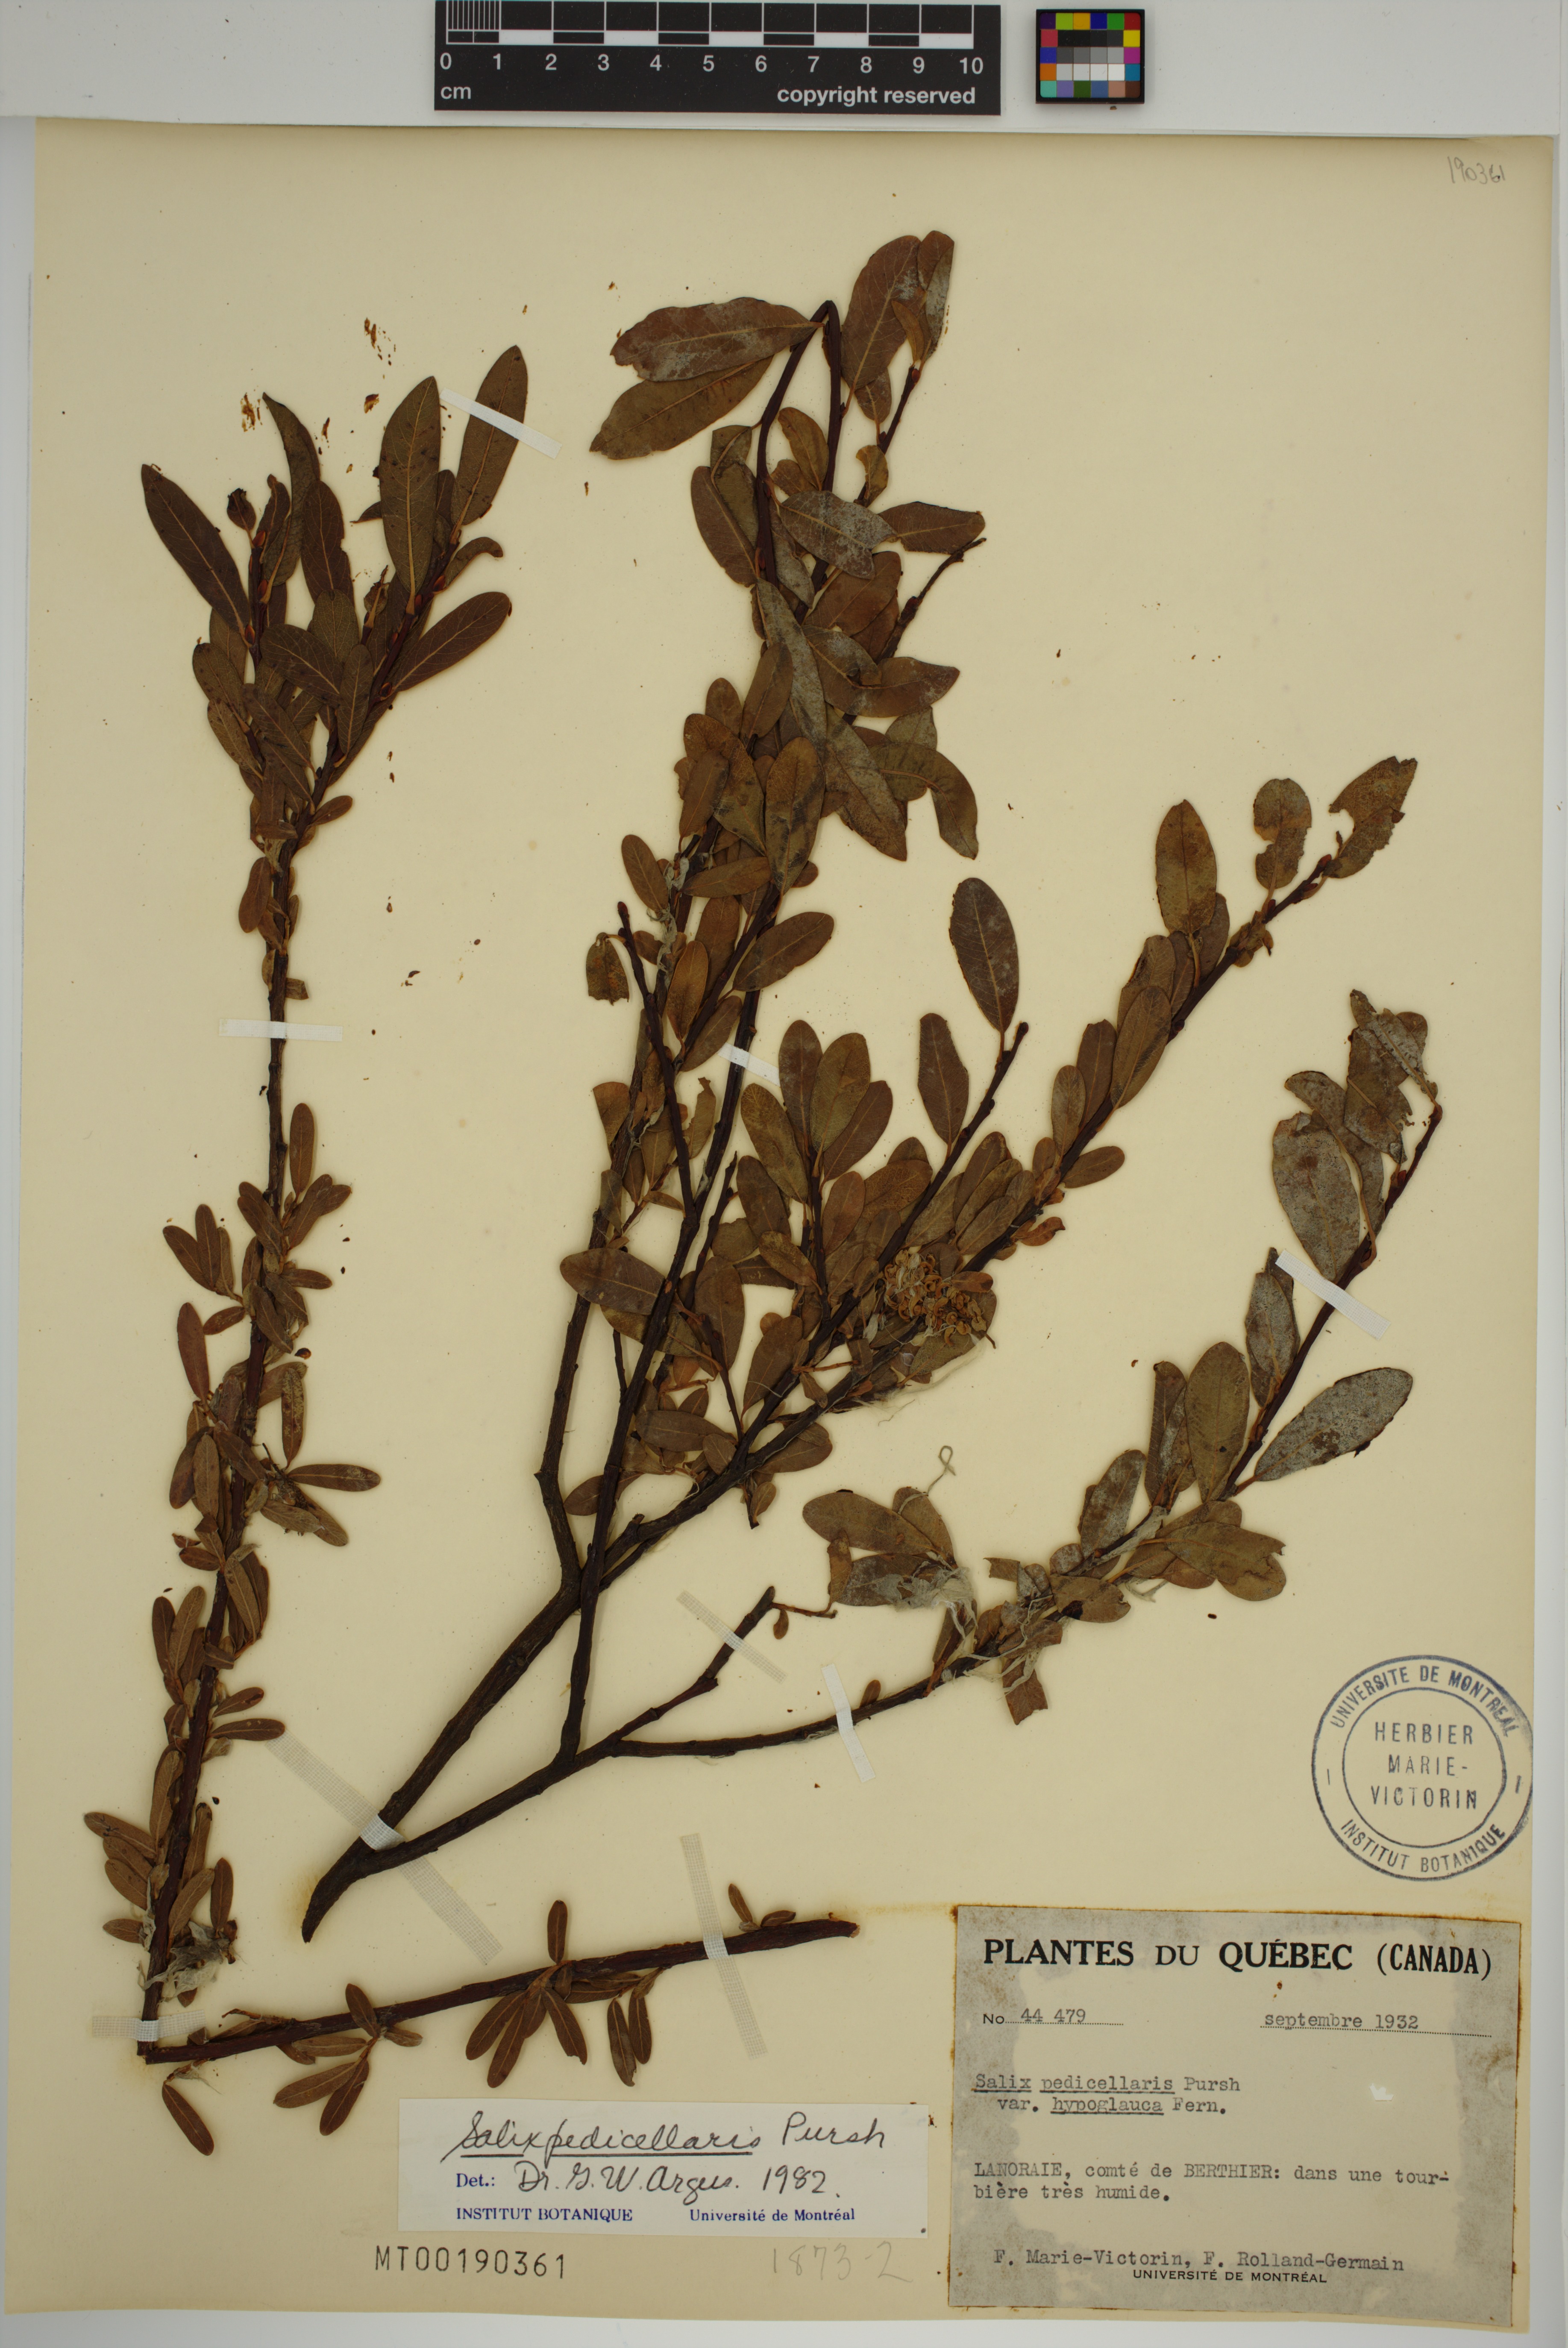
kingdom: Plantae
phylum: Tracheophyta
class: Magnoliopsida
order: Malpighiales
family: Salicaceae
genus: Salix
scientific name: Salix pedicellaris
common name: Bog willow
